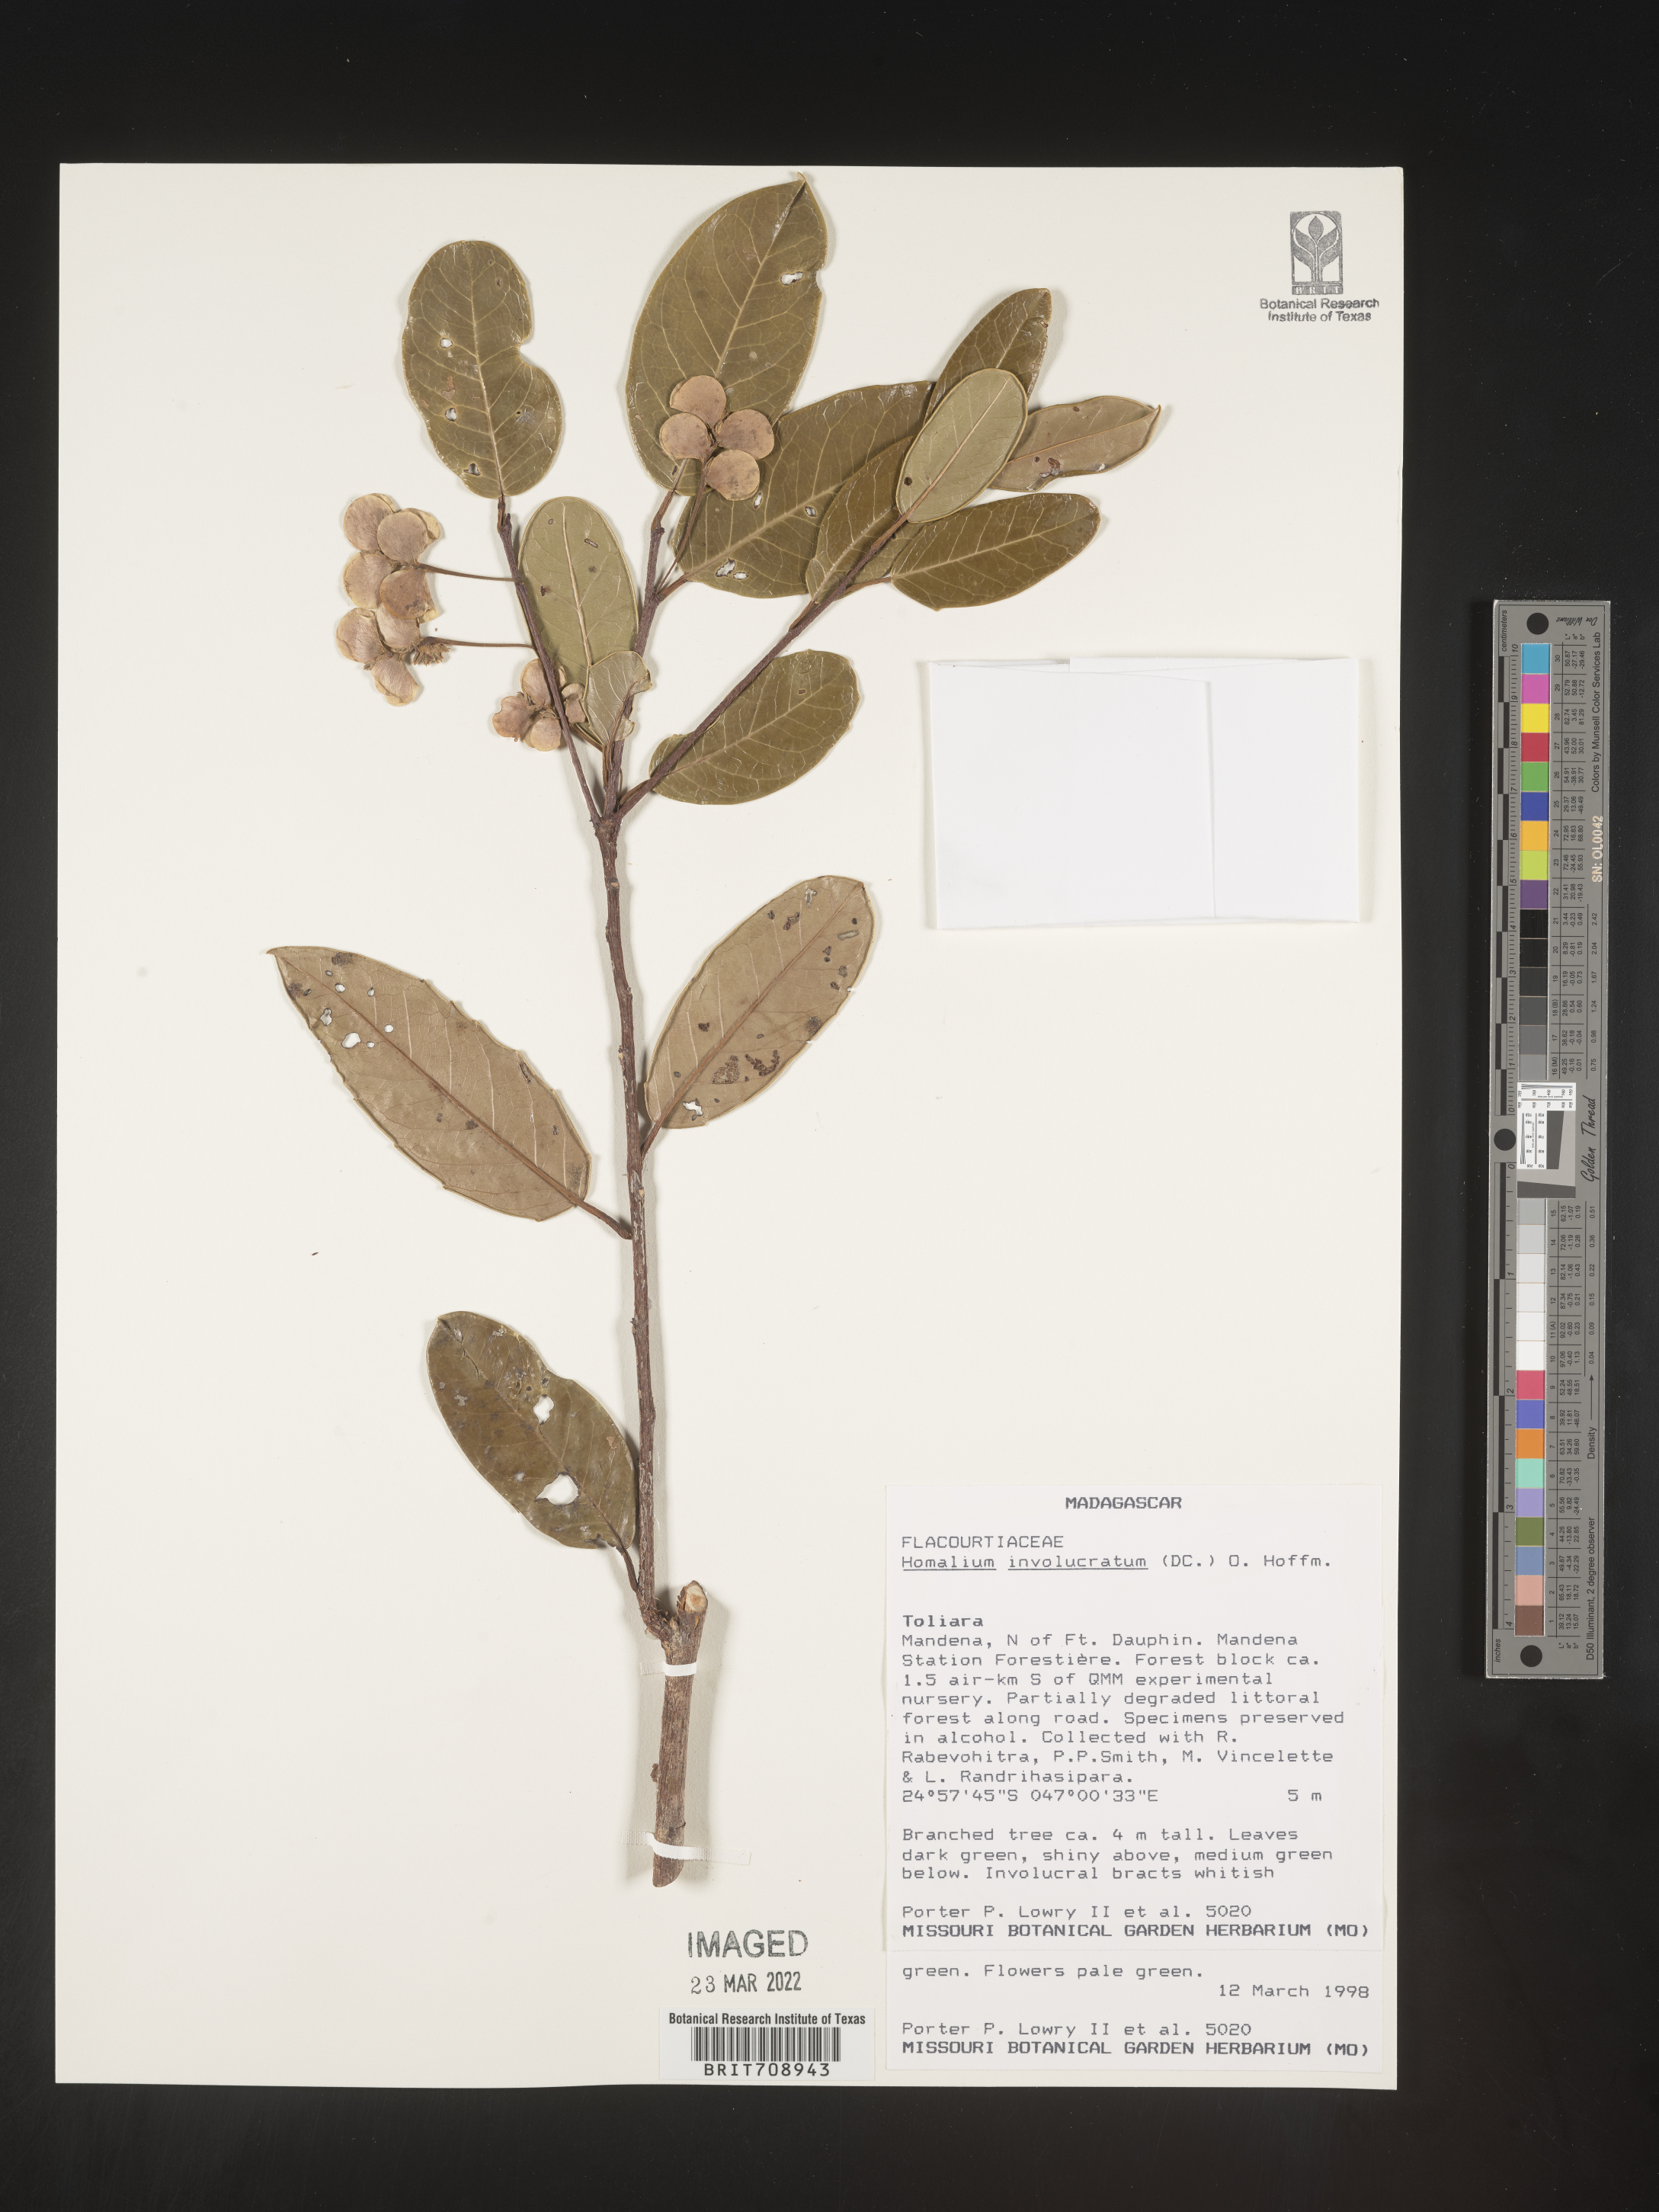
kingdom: Plantae
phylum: Tracheophyta
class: Magnoliopsida
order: Malpighiales
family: Salicaceae
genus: Homalium
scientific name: Homalium
